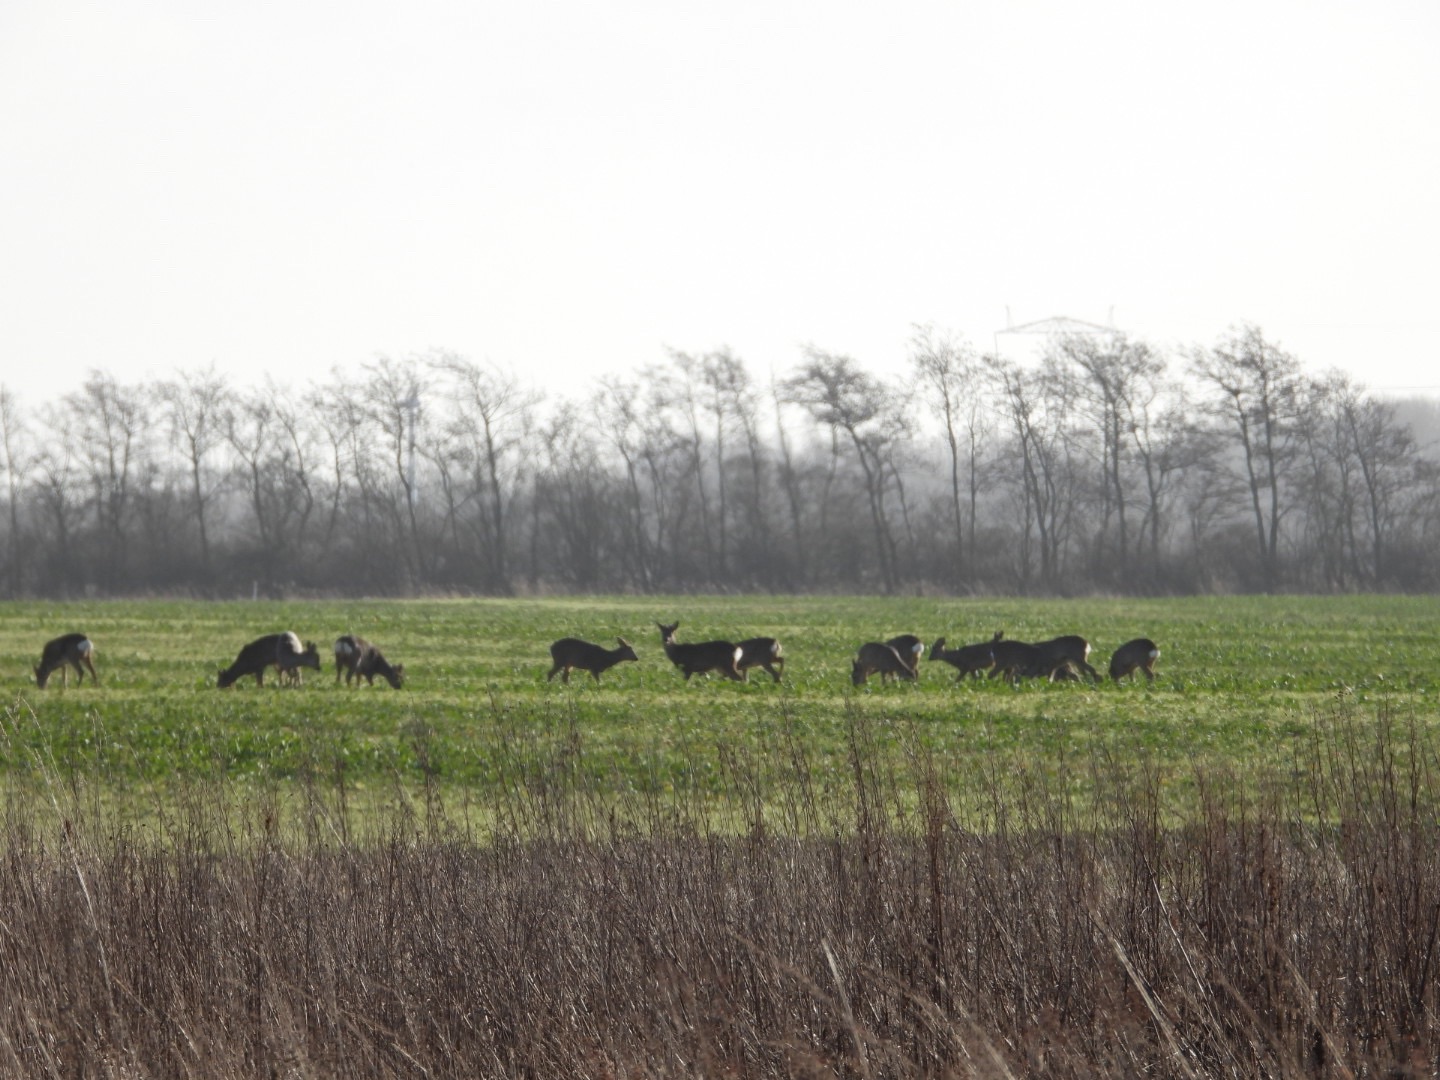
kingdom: Animalia
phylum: Chordata
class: Mammalia
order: Artiodactyla
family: Cervidae
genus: Capreolus
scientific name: Capreolus capreolus
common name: Rådyr
